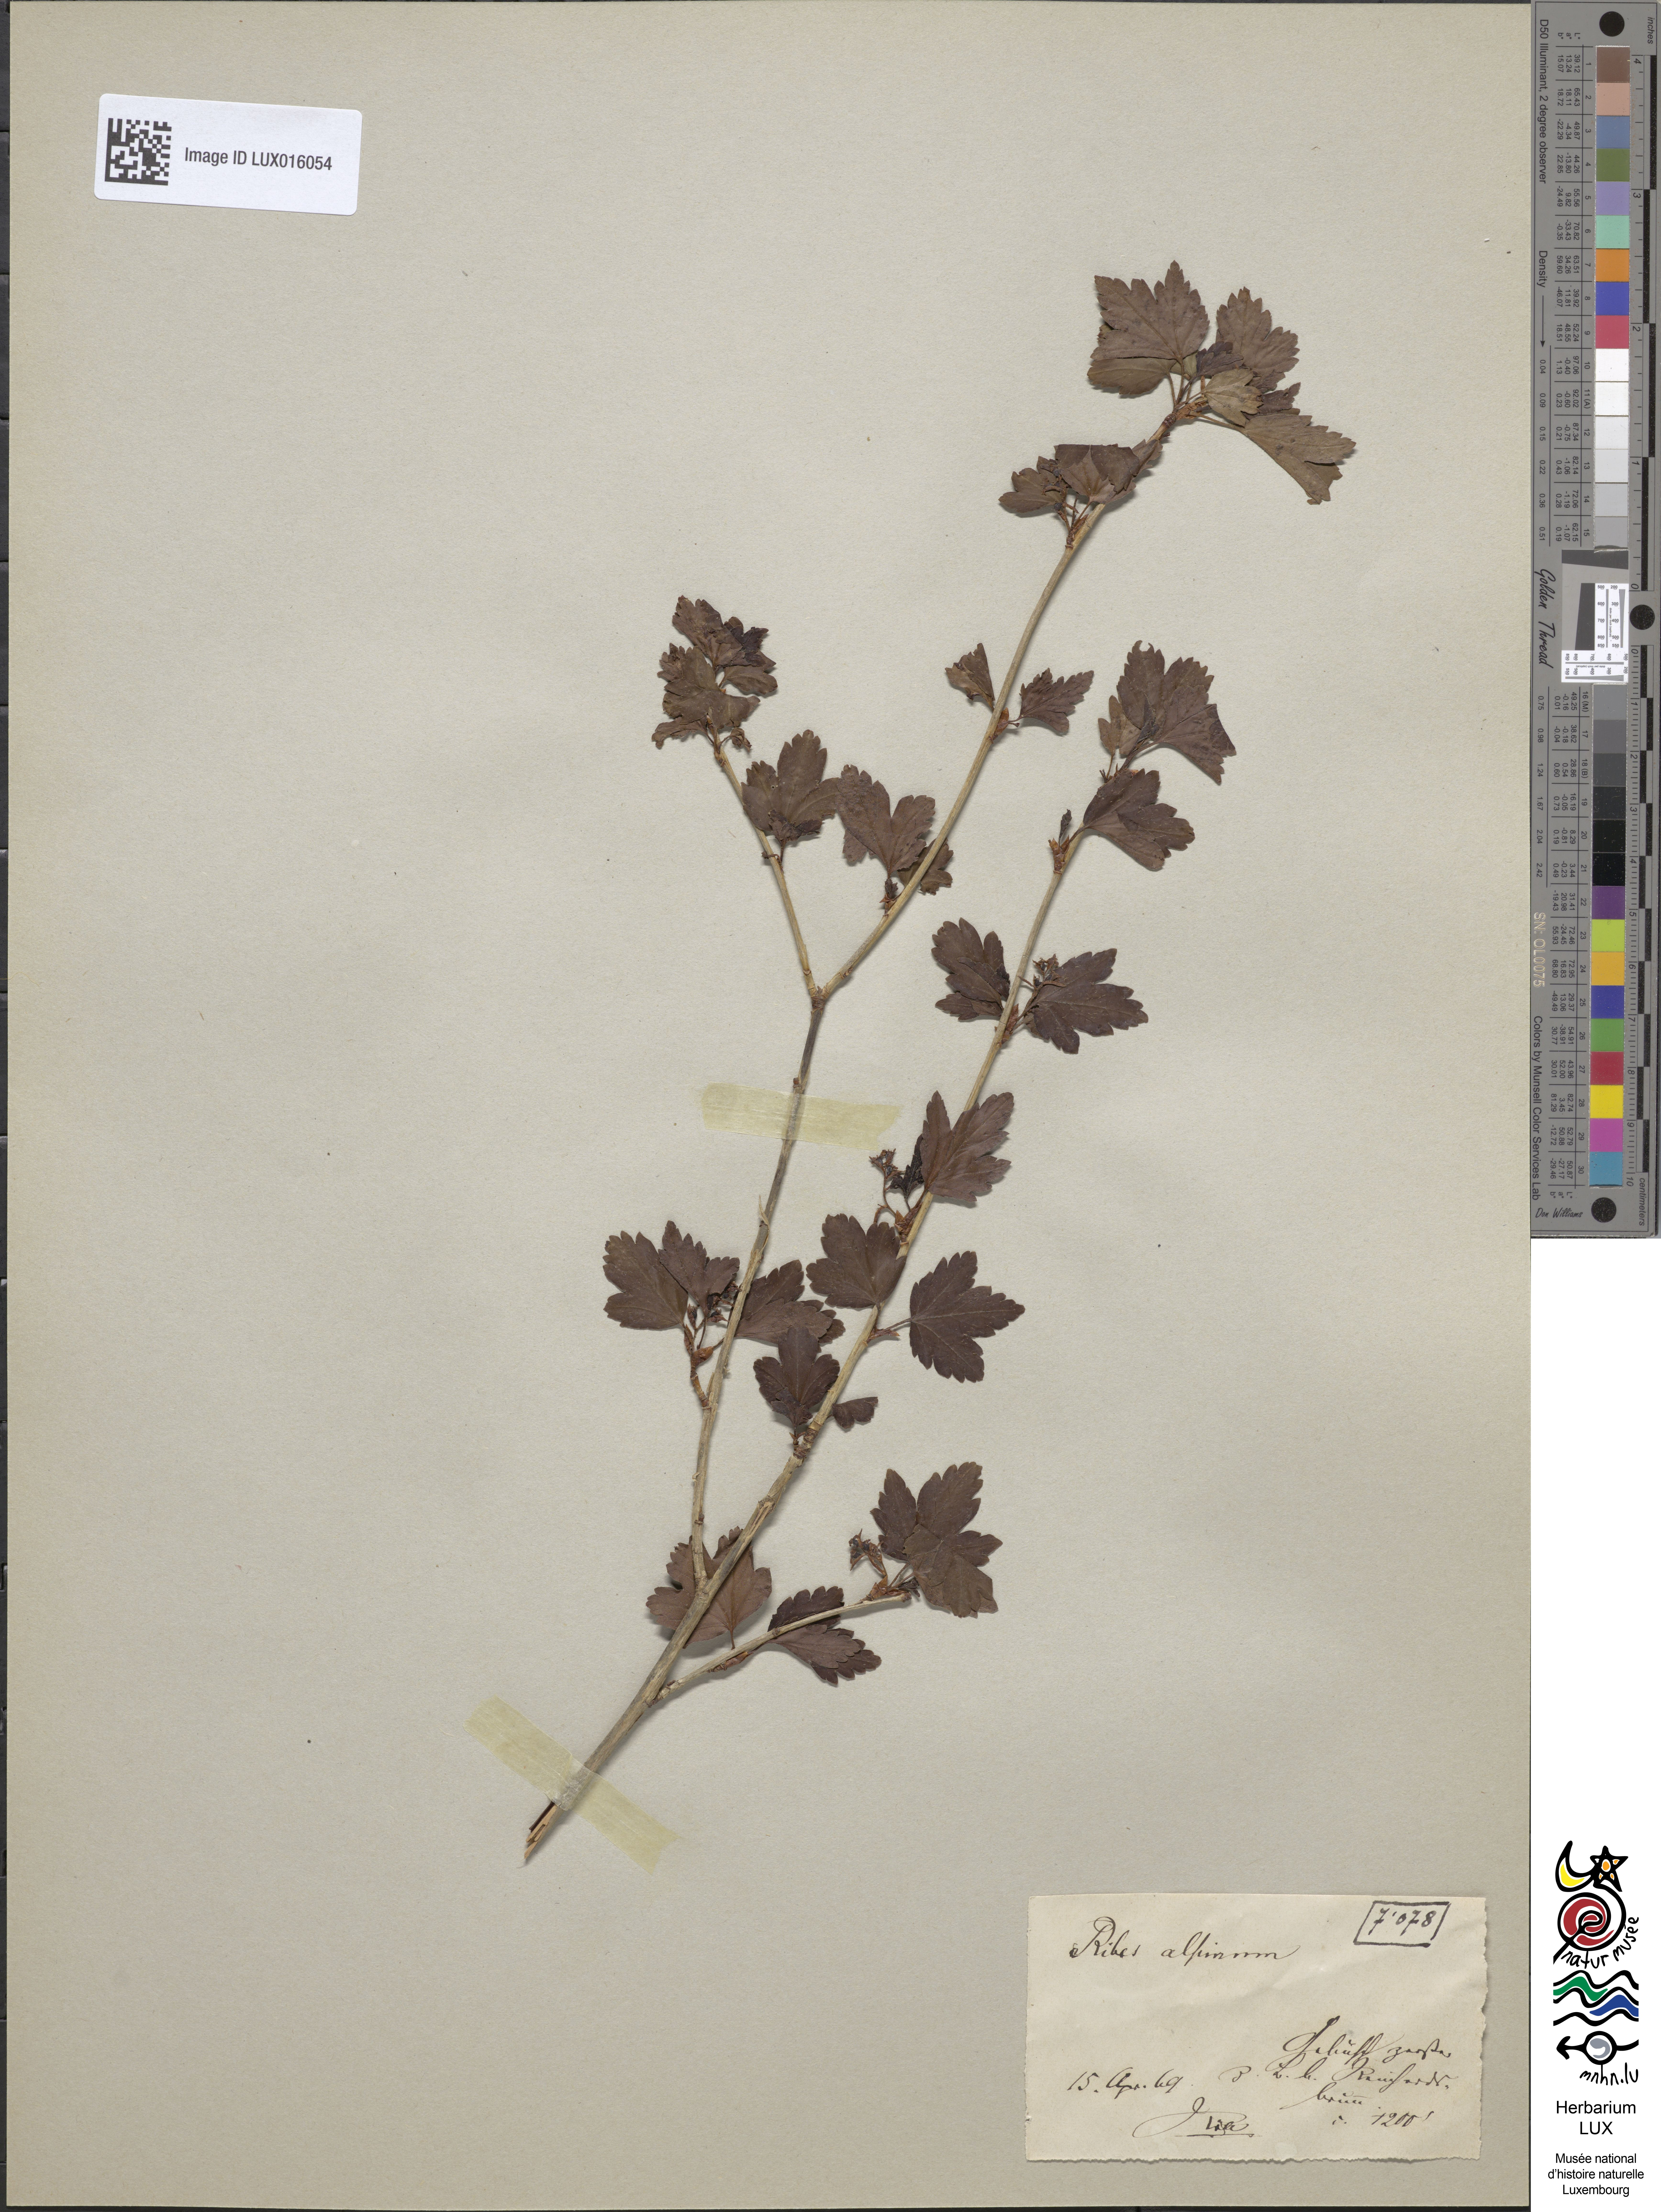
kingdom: Plantae
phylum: Tracheophyta
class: Magnoliopsida
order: Saxifragales
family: Grossulariaceae
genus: Ribes
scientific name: Ribes alpinum
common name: Alpine currant
